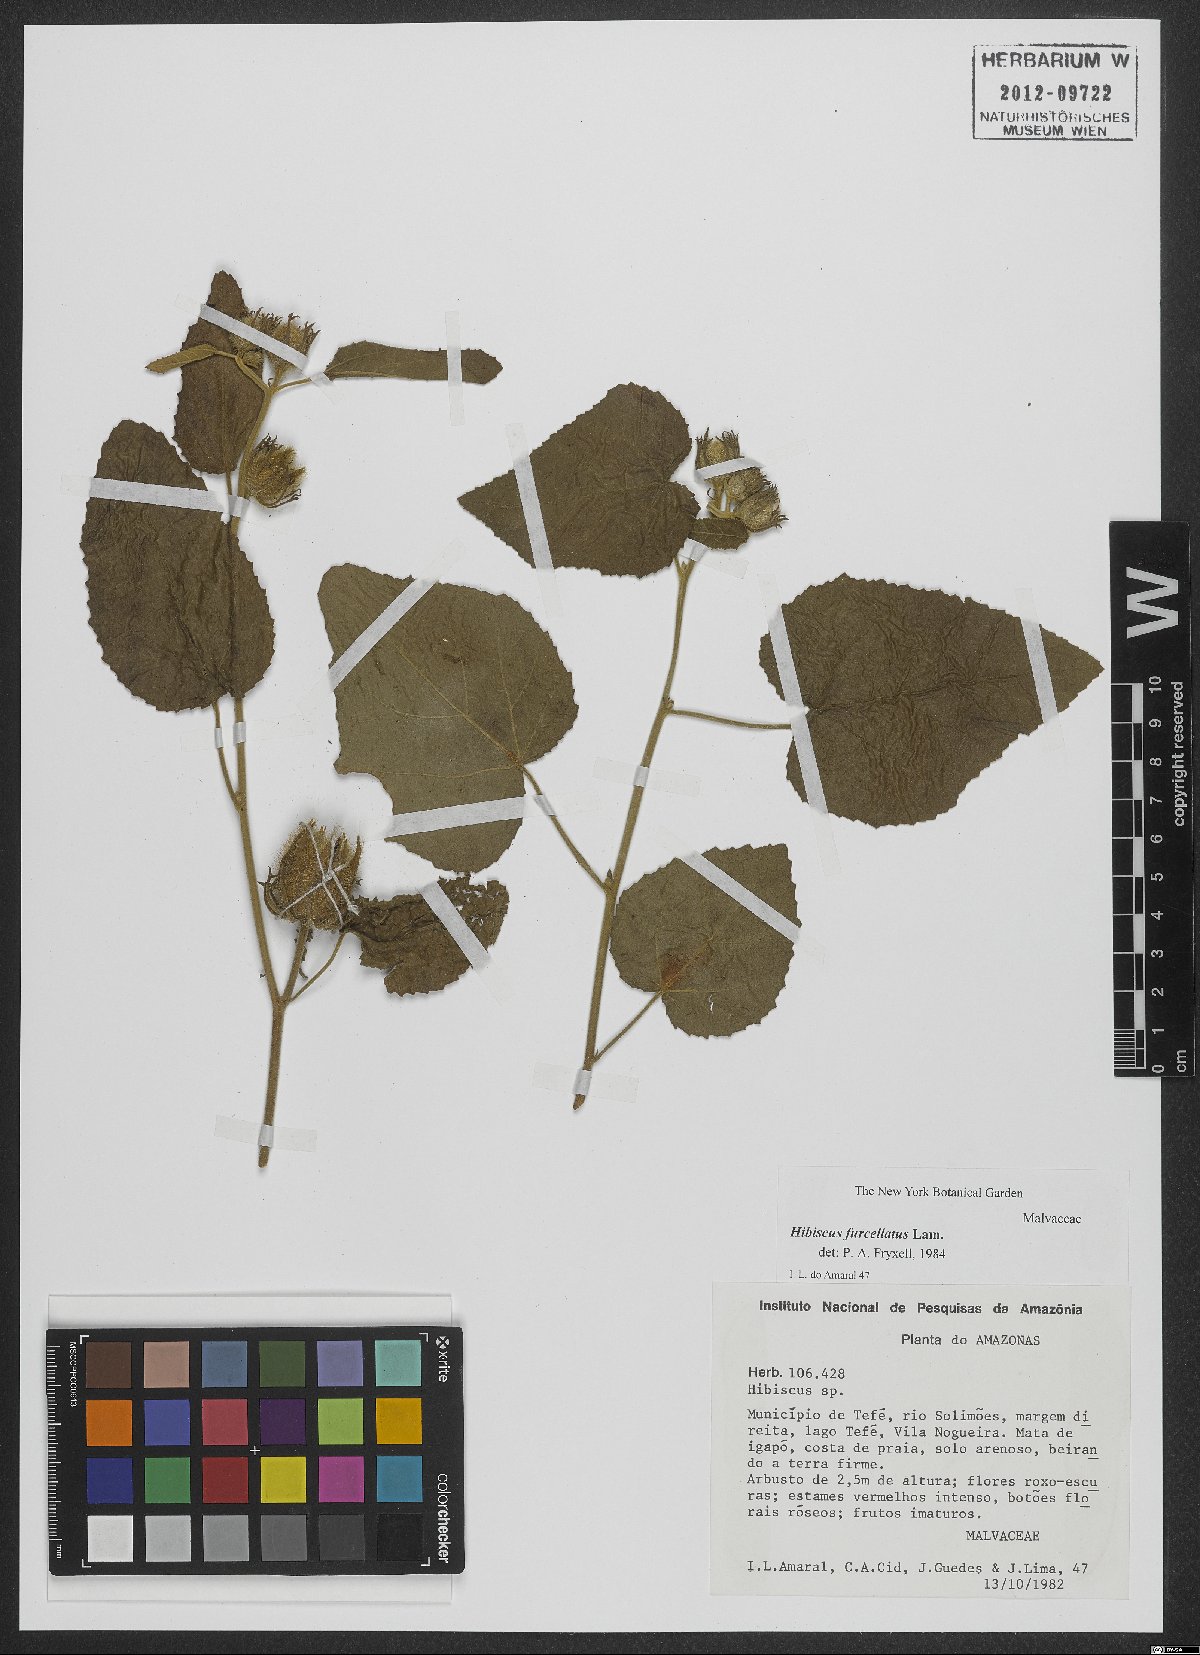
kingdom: Plantae
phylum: Tracheophyta
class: Magnoliopsida
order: Malvales
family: Malvaceae
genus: Hibiscus
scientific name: Hibiscus furcellatus
